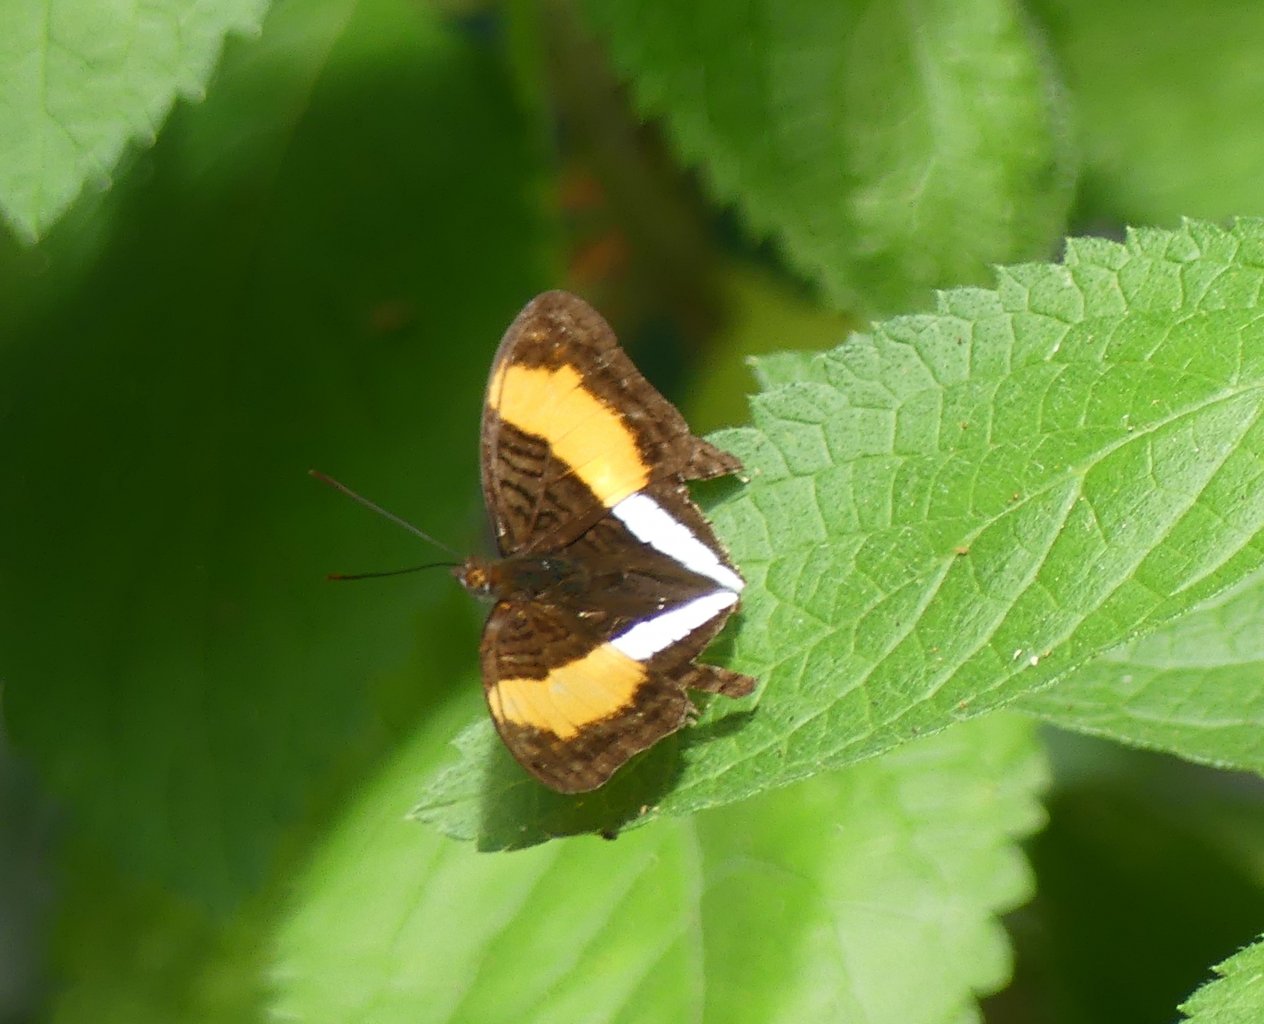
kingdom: Animalia
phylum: Arthropoda
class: Insecta
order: Lepidoptera
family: Nymphalidae
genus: Limenitis
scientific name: Limenitis cocala
